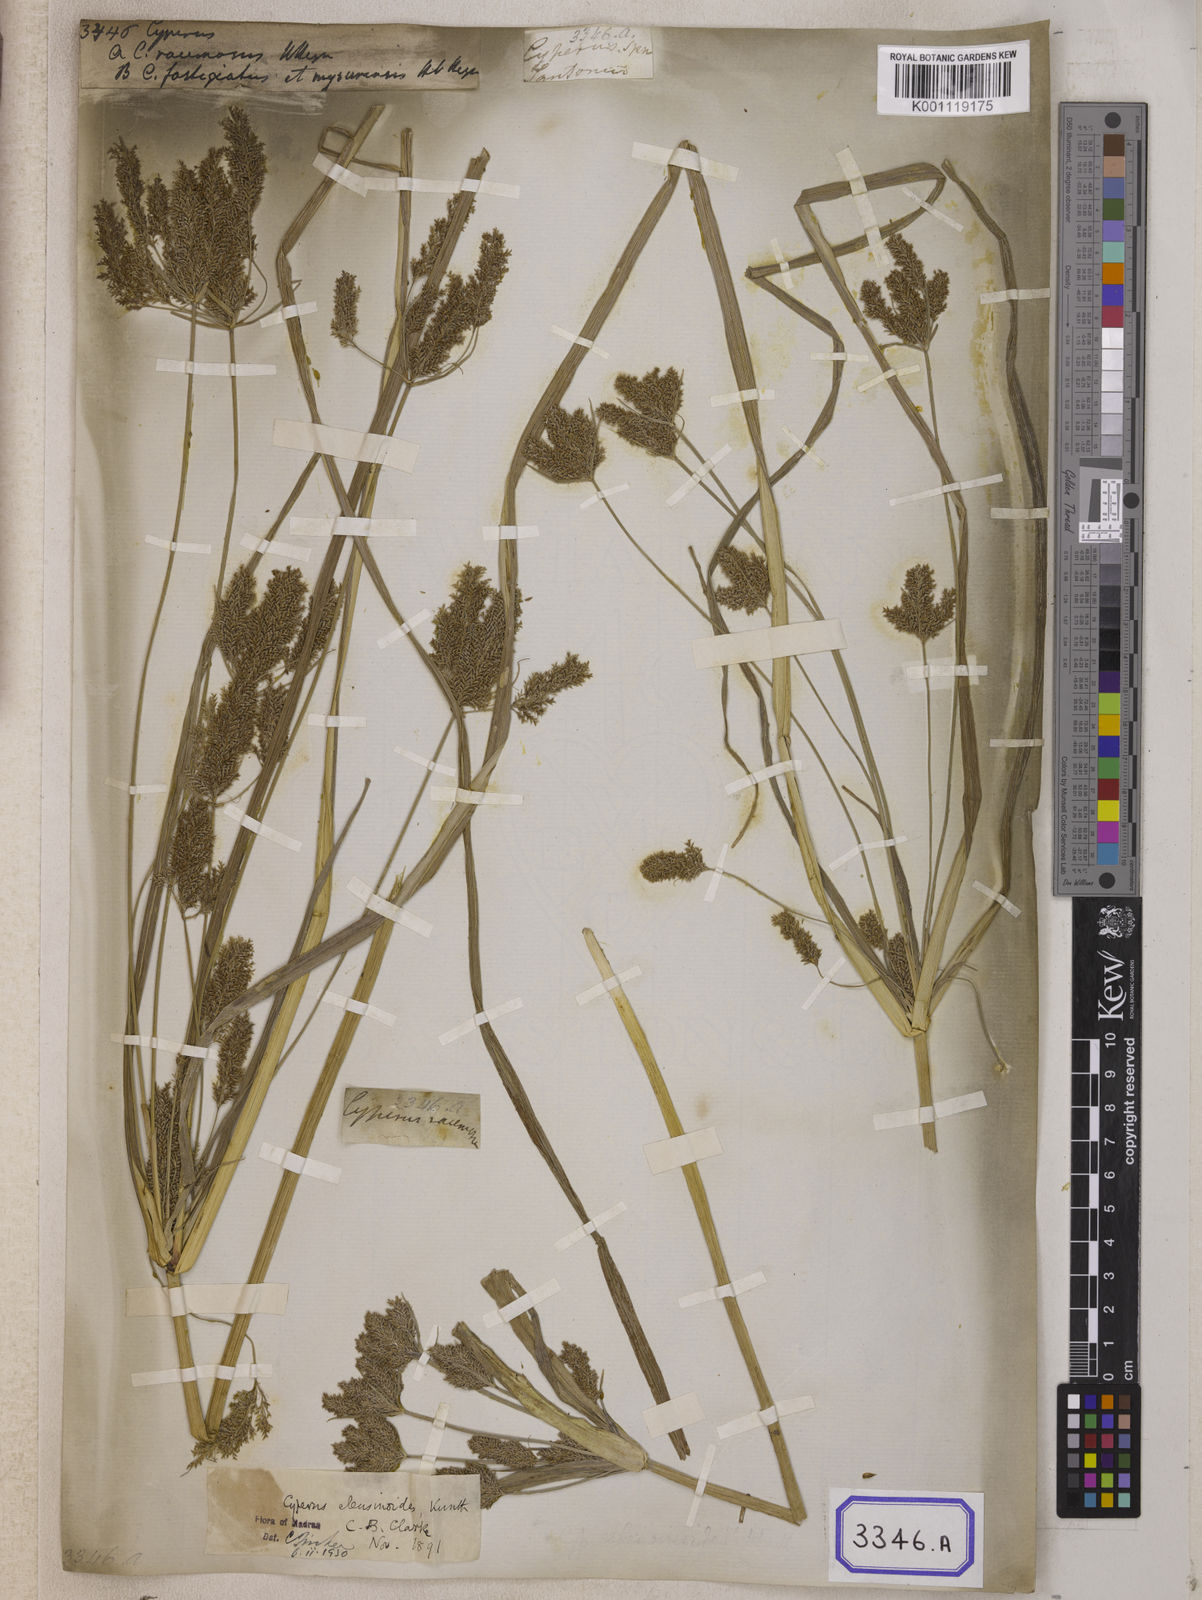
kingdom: Plantae
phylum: Tracheophyta
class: Liliopsida
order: Poales
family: Cyperaceae
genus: Cyperus
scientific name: Cyperus
